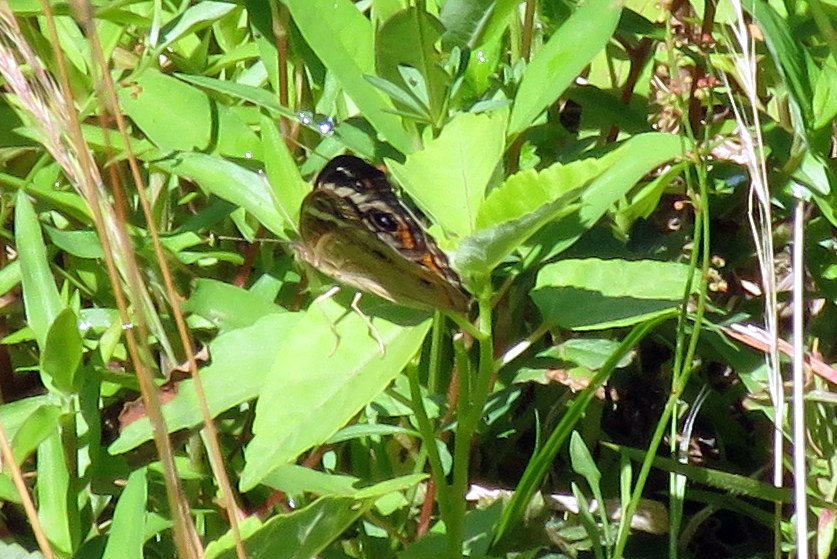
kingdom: Animalia
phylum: Arthropoda
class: Insecta
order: Lepidoptera
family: Nymphalidae
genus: Junonia
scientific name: Junonia coenia
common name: Common Buckeye
